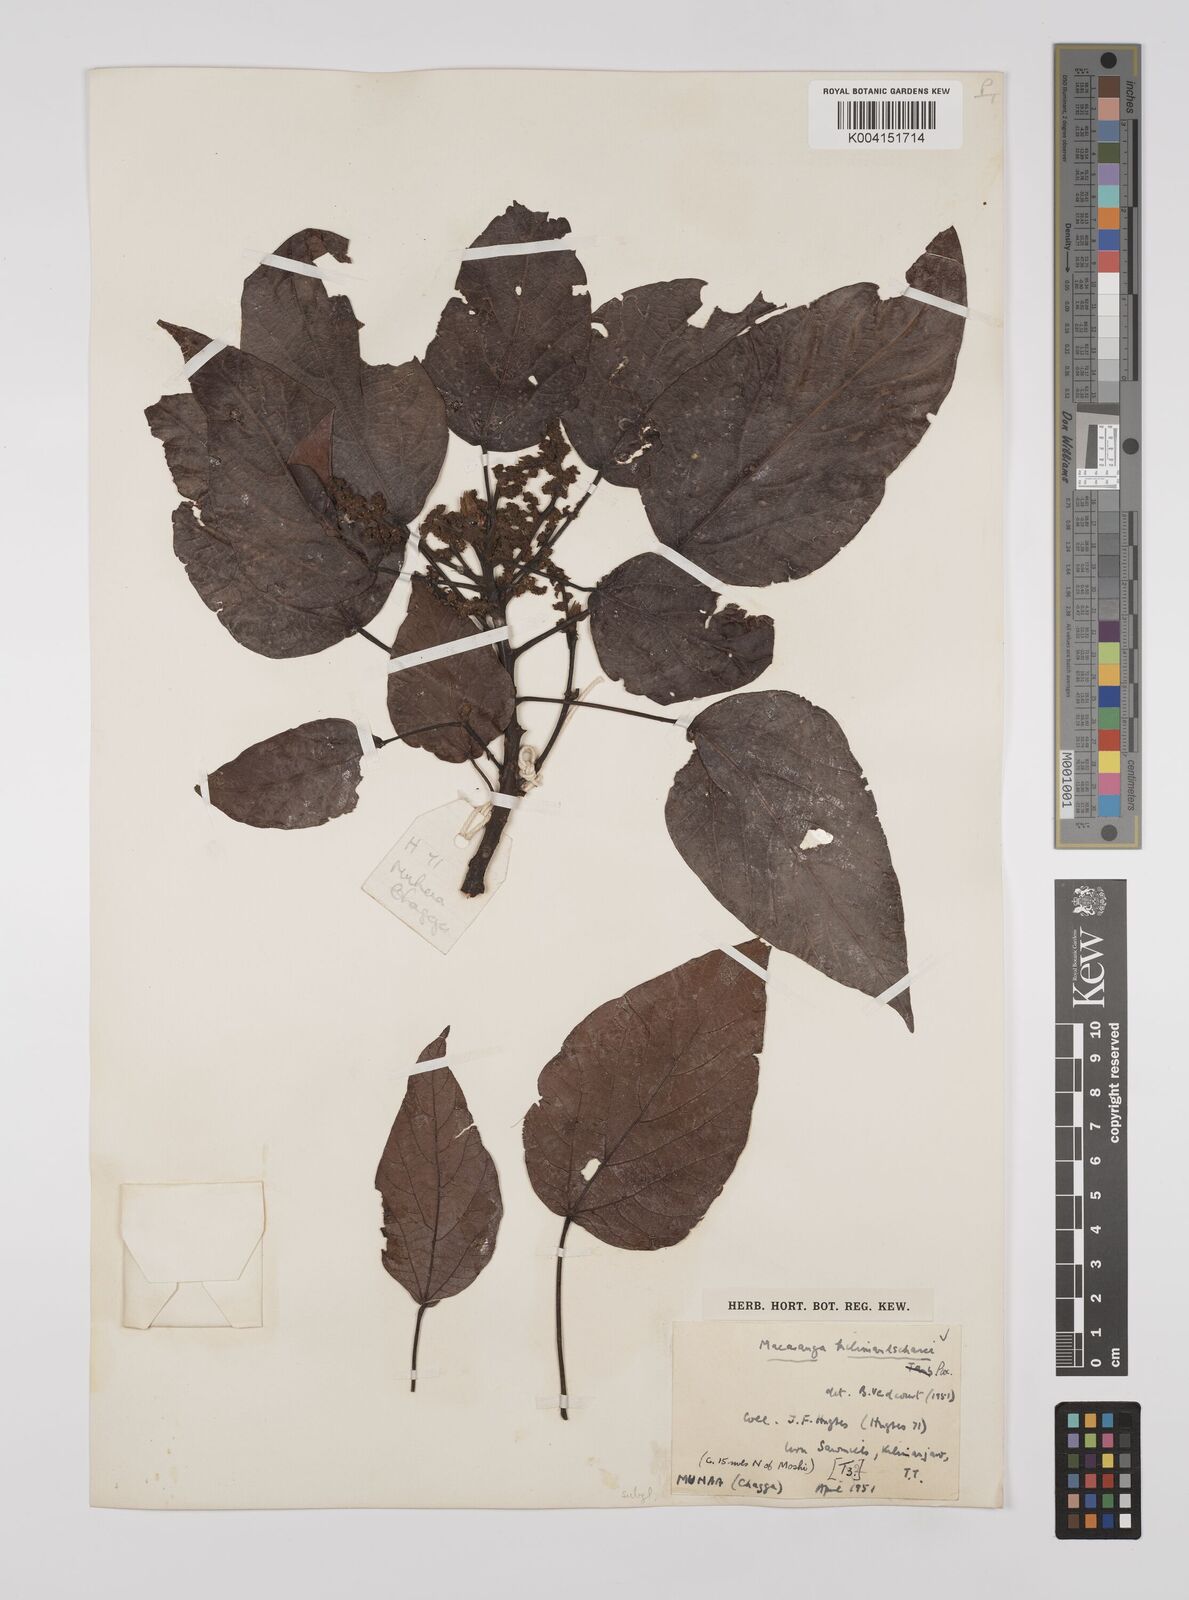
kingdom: Plantae
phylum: Tracheophyta
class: Magnoliopsida
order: Malpighiales
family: Euphorbiaceae
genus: Macaranga
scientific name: Macaranga kilimandscharica
